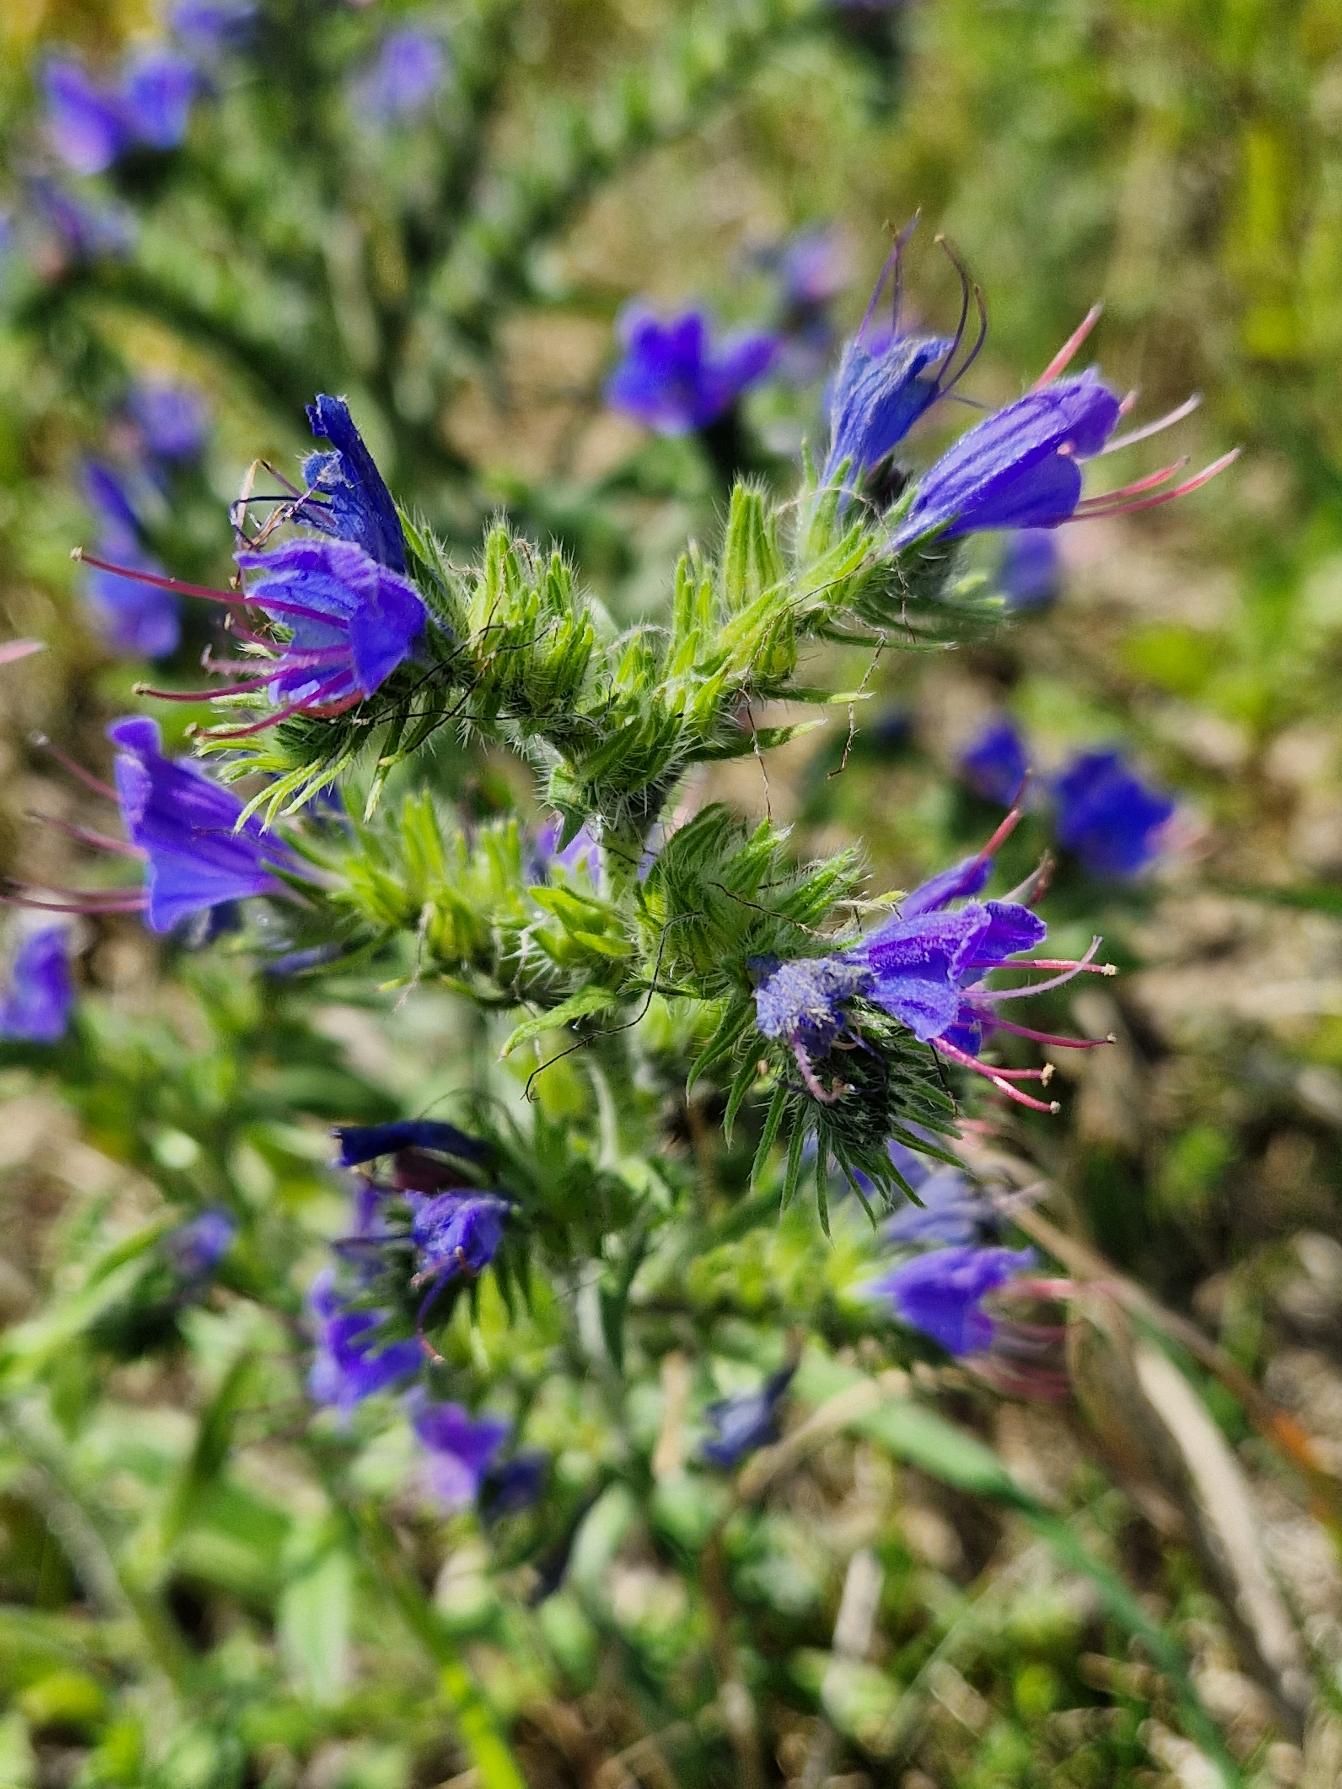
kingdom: Plantae
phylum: Tracheophyta
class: Magnoliopsida
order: Boraginales
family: Boraginaceae
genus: Echium
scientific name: Echium vulgare
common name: Slangehoved
